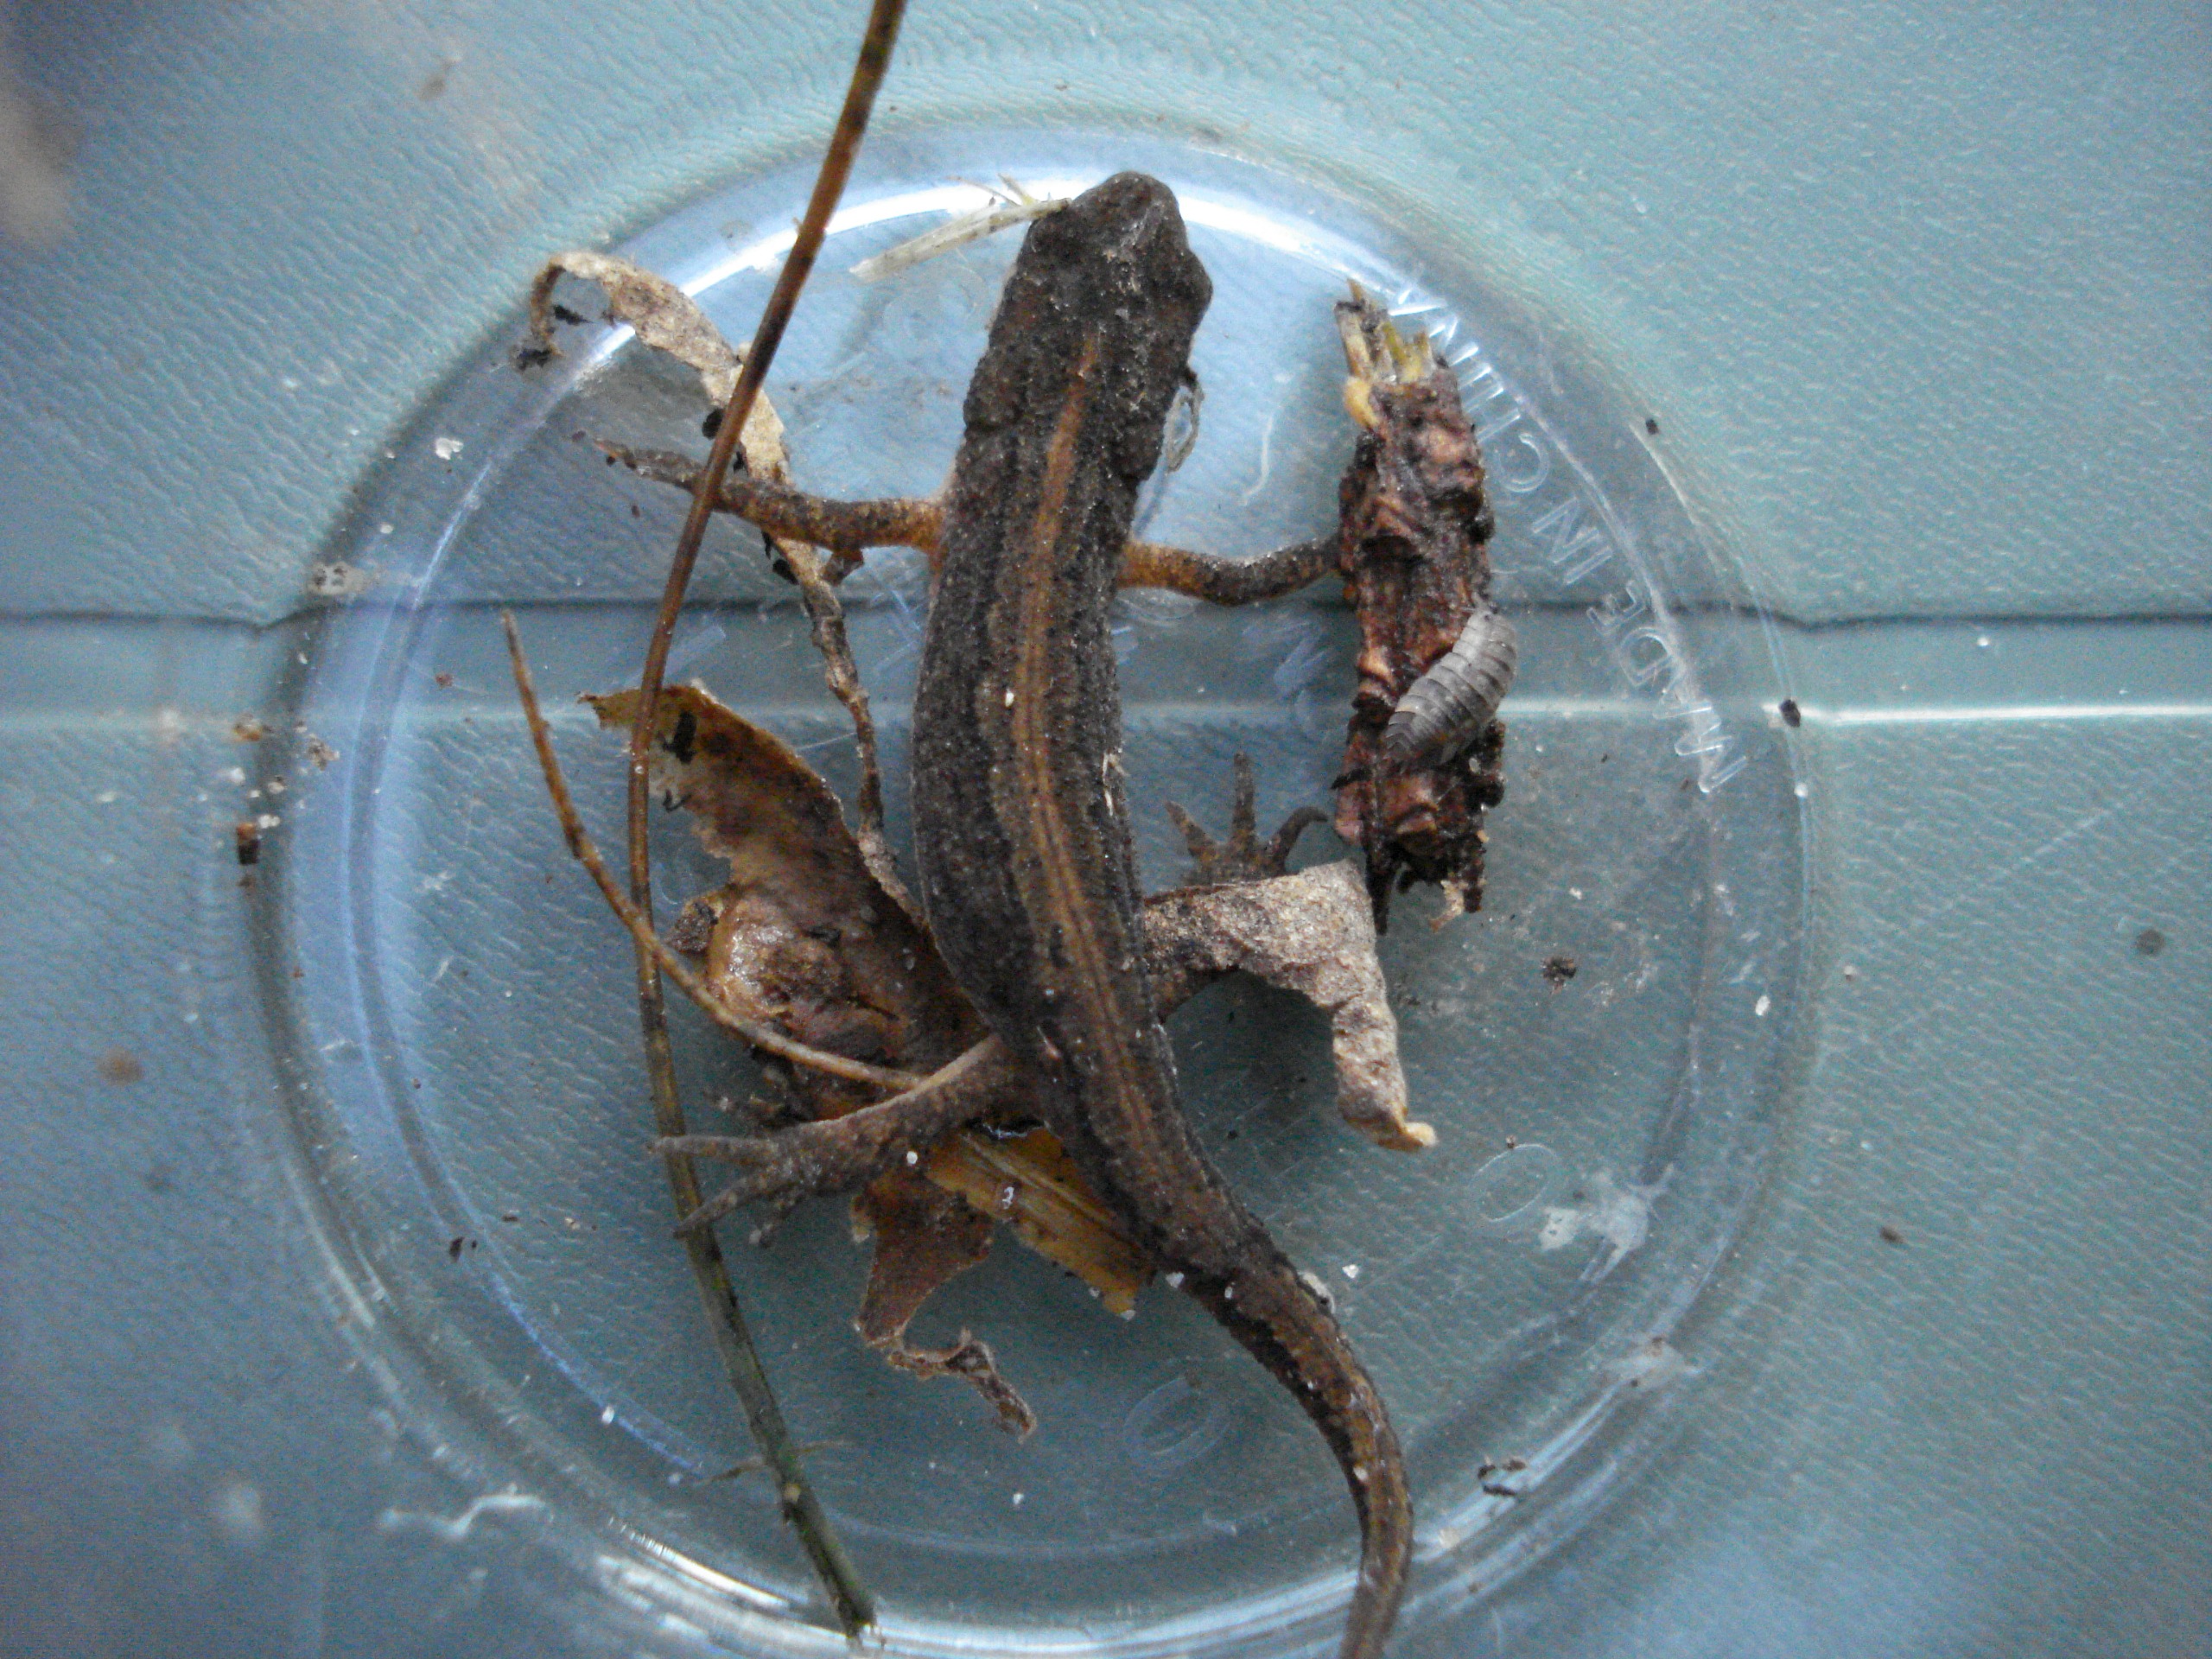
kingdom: Animalia
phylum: Chordata
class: Amphibia
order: Caudata
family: Salamandridae
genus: Lissotriton
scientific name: Lissotriton vulgaris
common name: Lille vandsalamander
